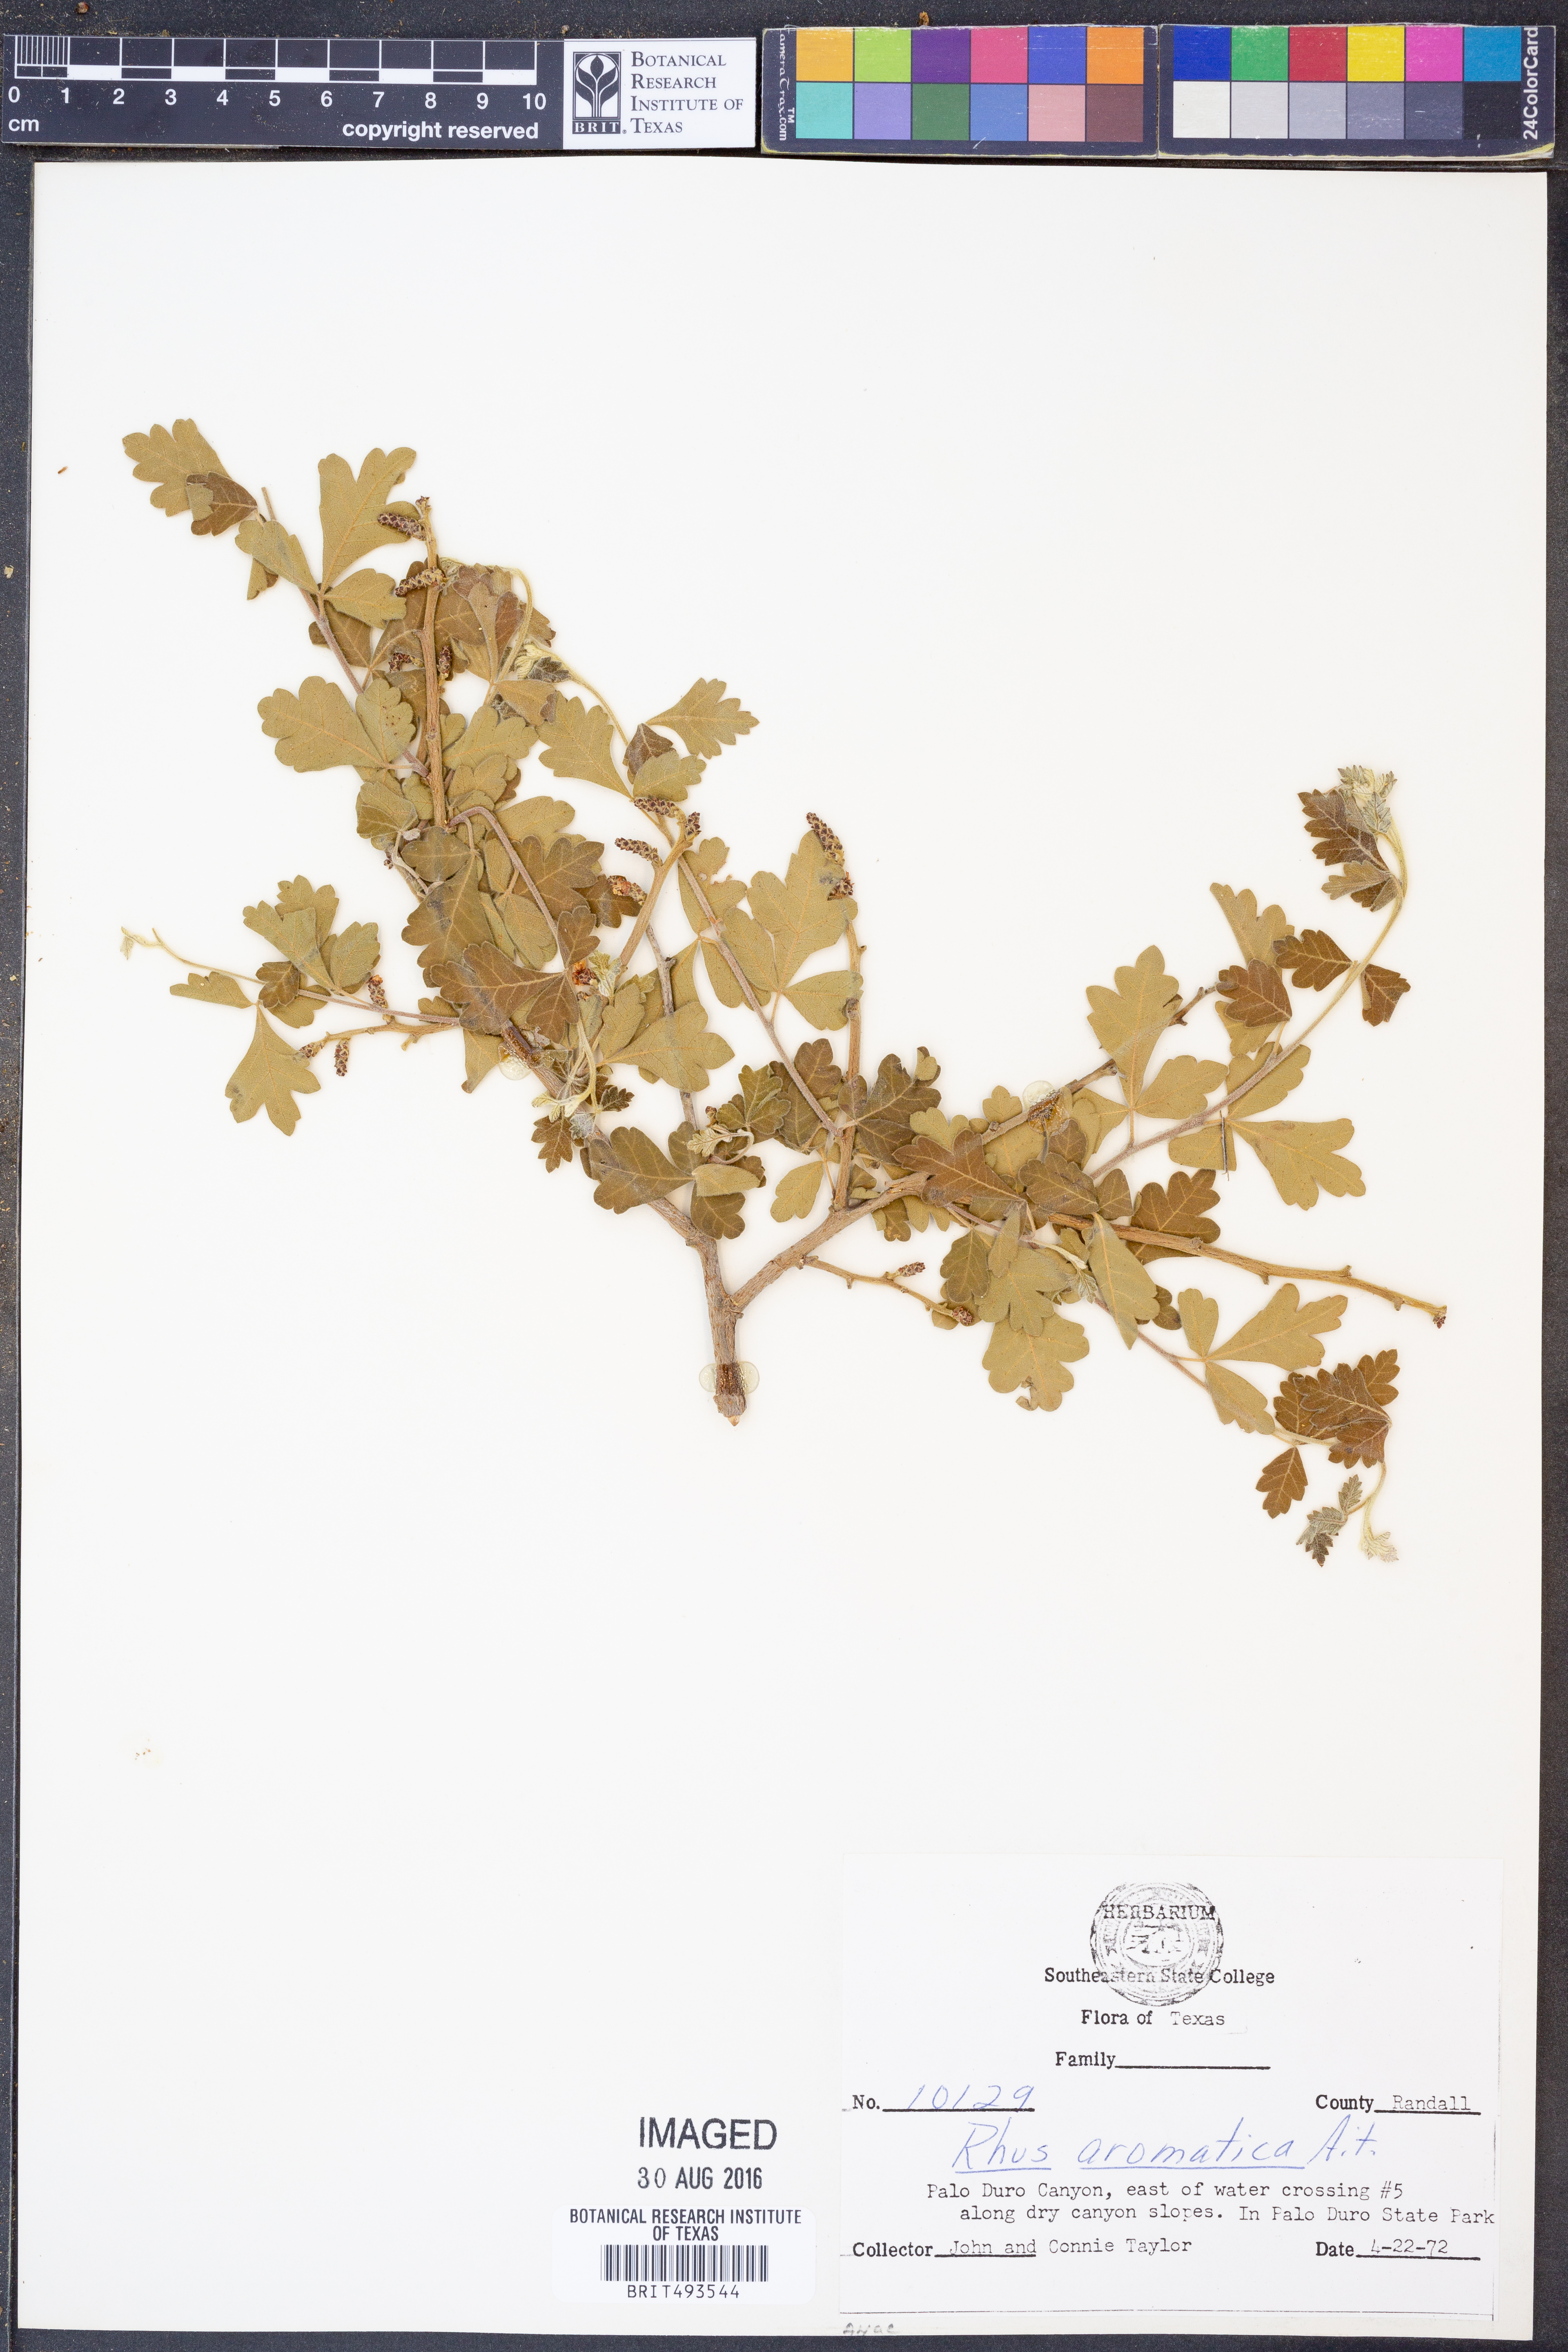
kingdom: Plantae
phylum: Tracheophyta
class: Magnoliopsida
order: Sapindales
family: Anacardiaceae
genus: Rhus
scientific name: Rhus aromatica
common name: Aromatic sumac
